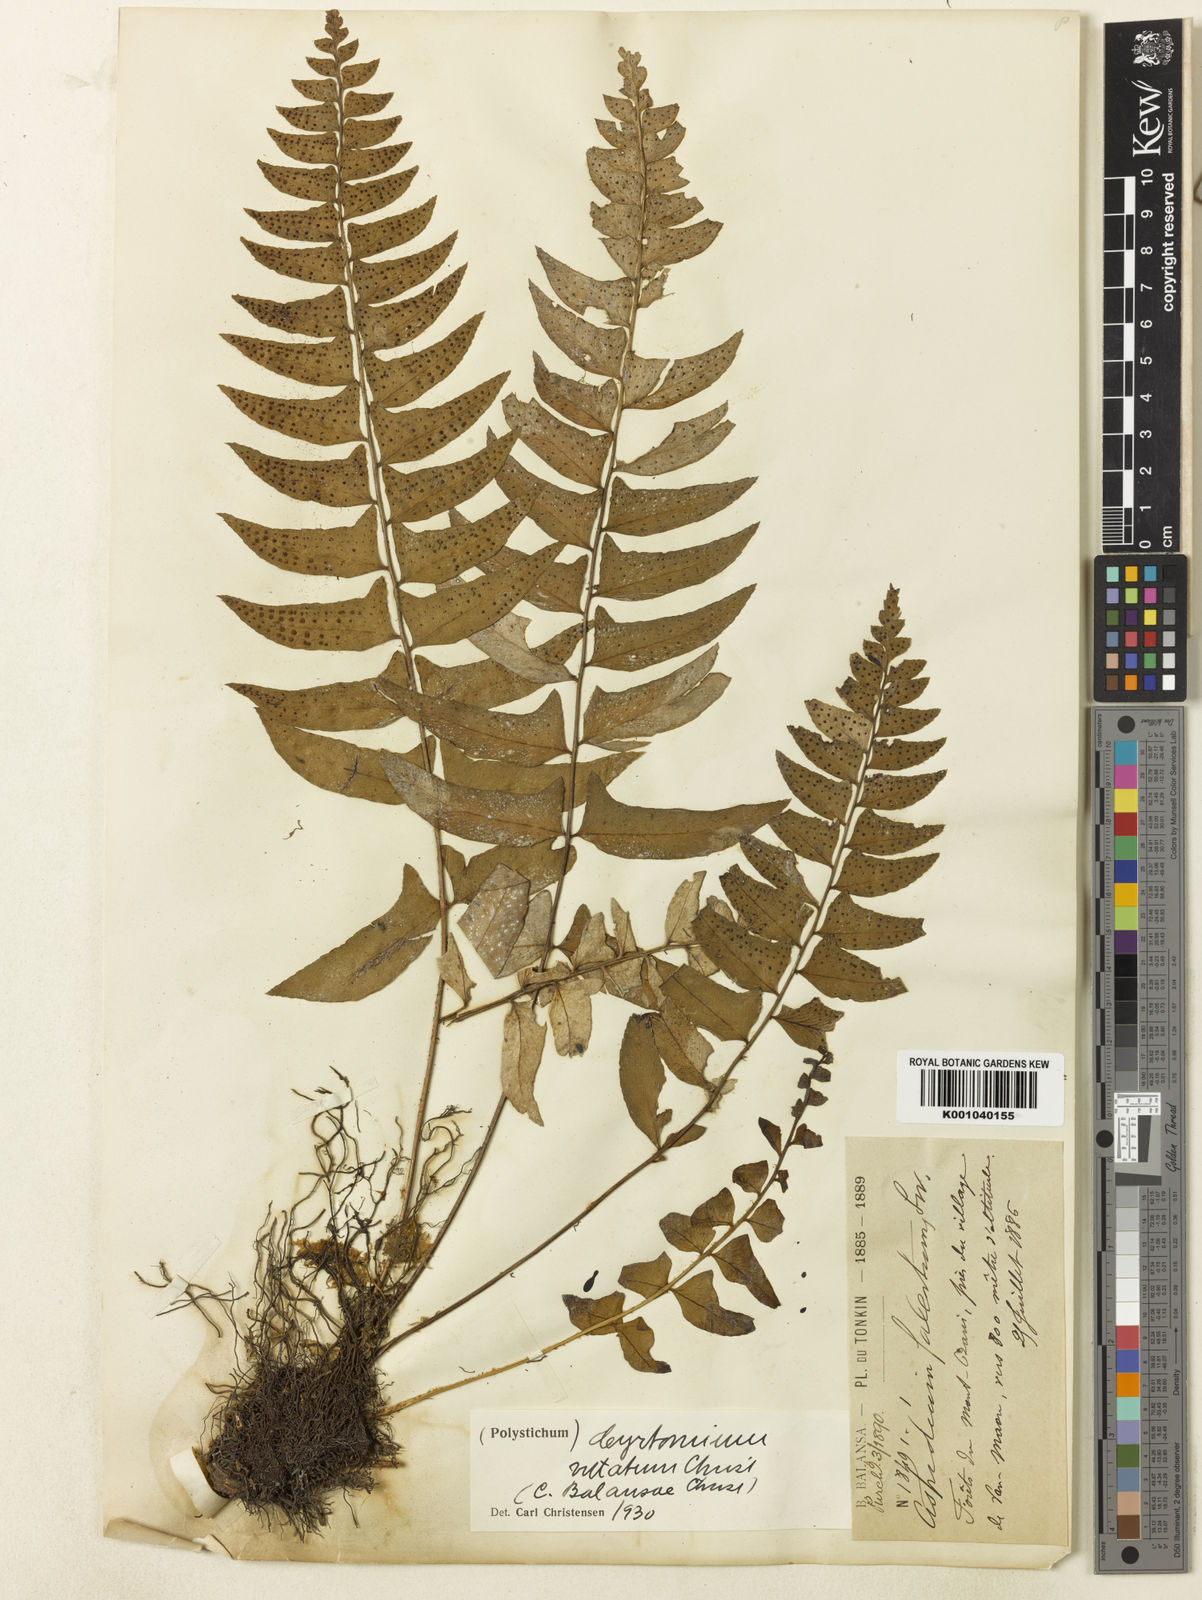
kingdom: Plantae
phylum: Tracheophyta
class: Polypodiopsida
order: Polypodiales
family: Dryopteridaceae
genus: Cyrtomium
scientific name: Cyrtomium lonchitoides
